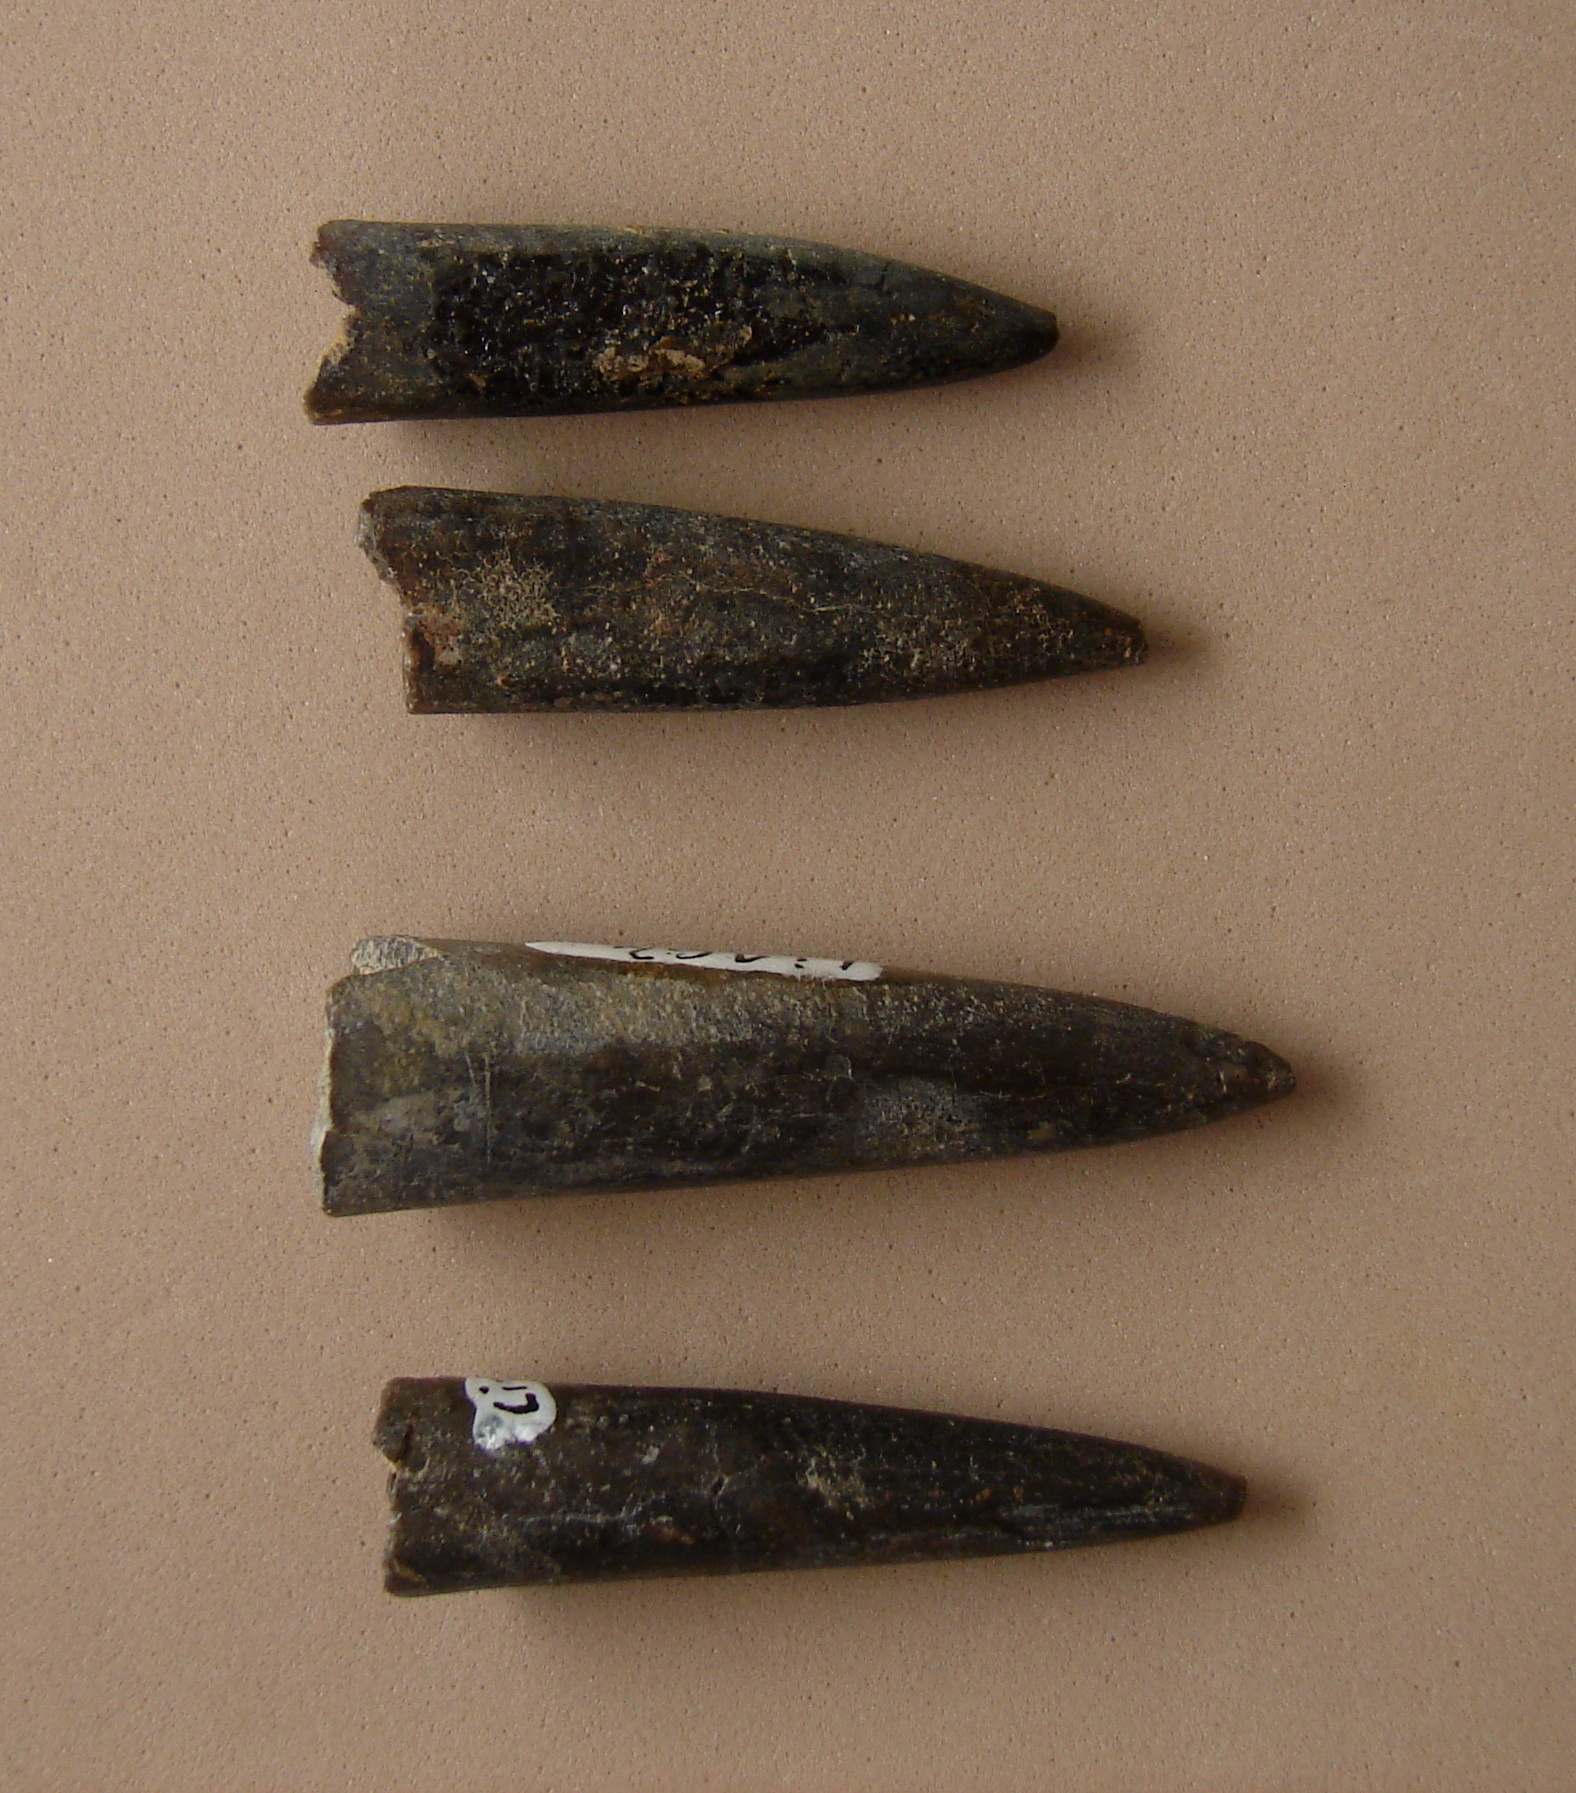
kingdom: Animalia
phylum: Mollusca
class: Cephalopoda
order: Belemnitida
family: Belemnitidae
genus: Belemnites
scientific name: Belemnites
